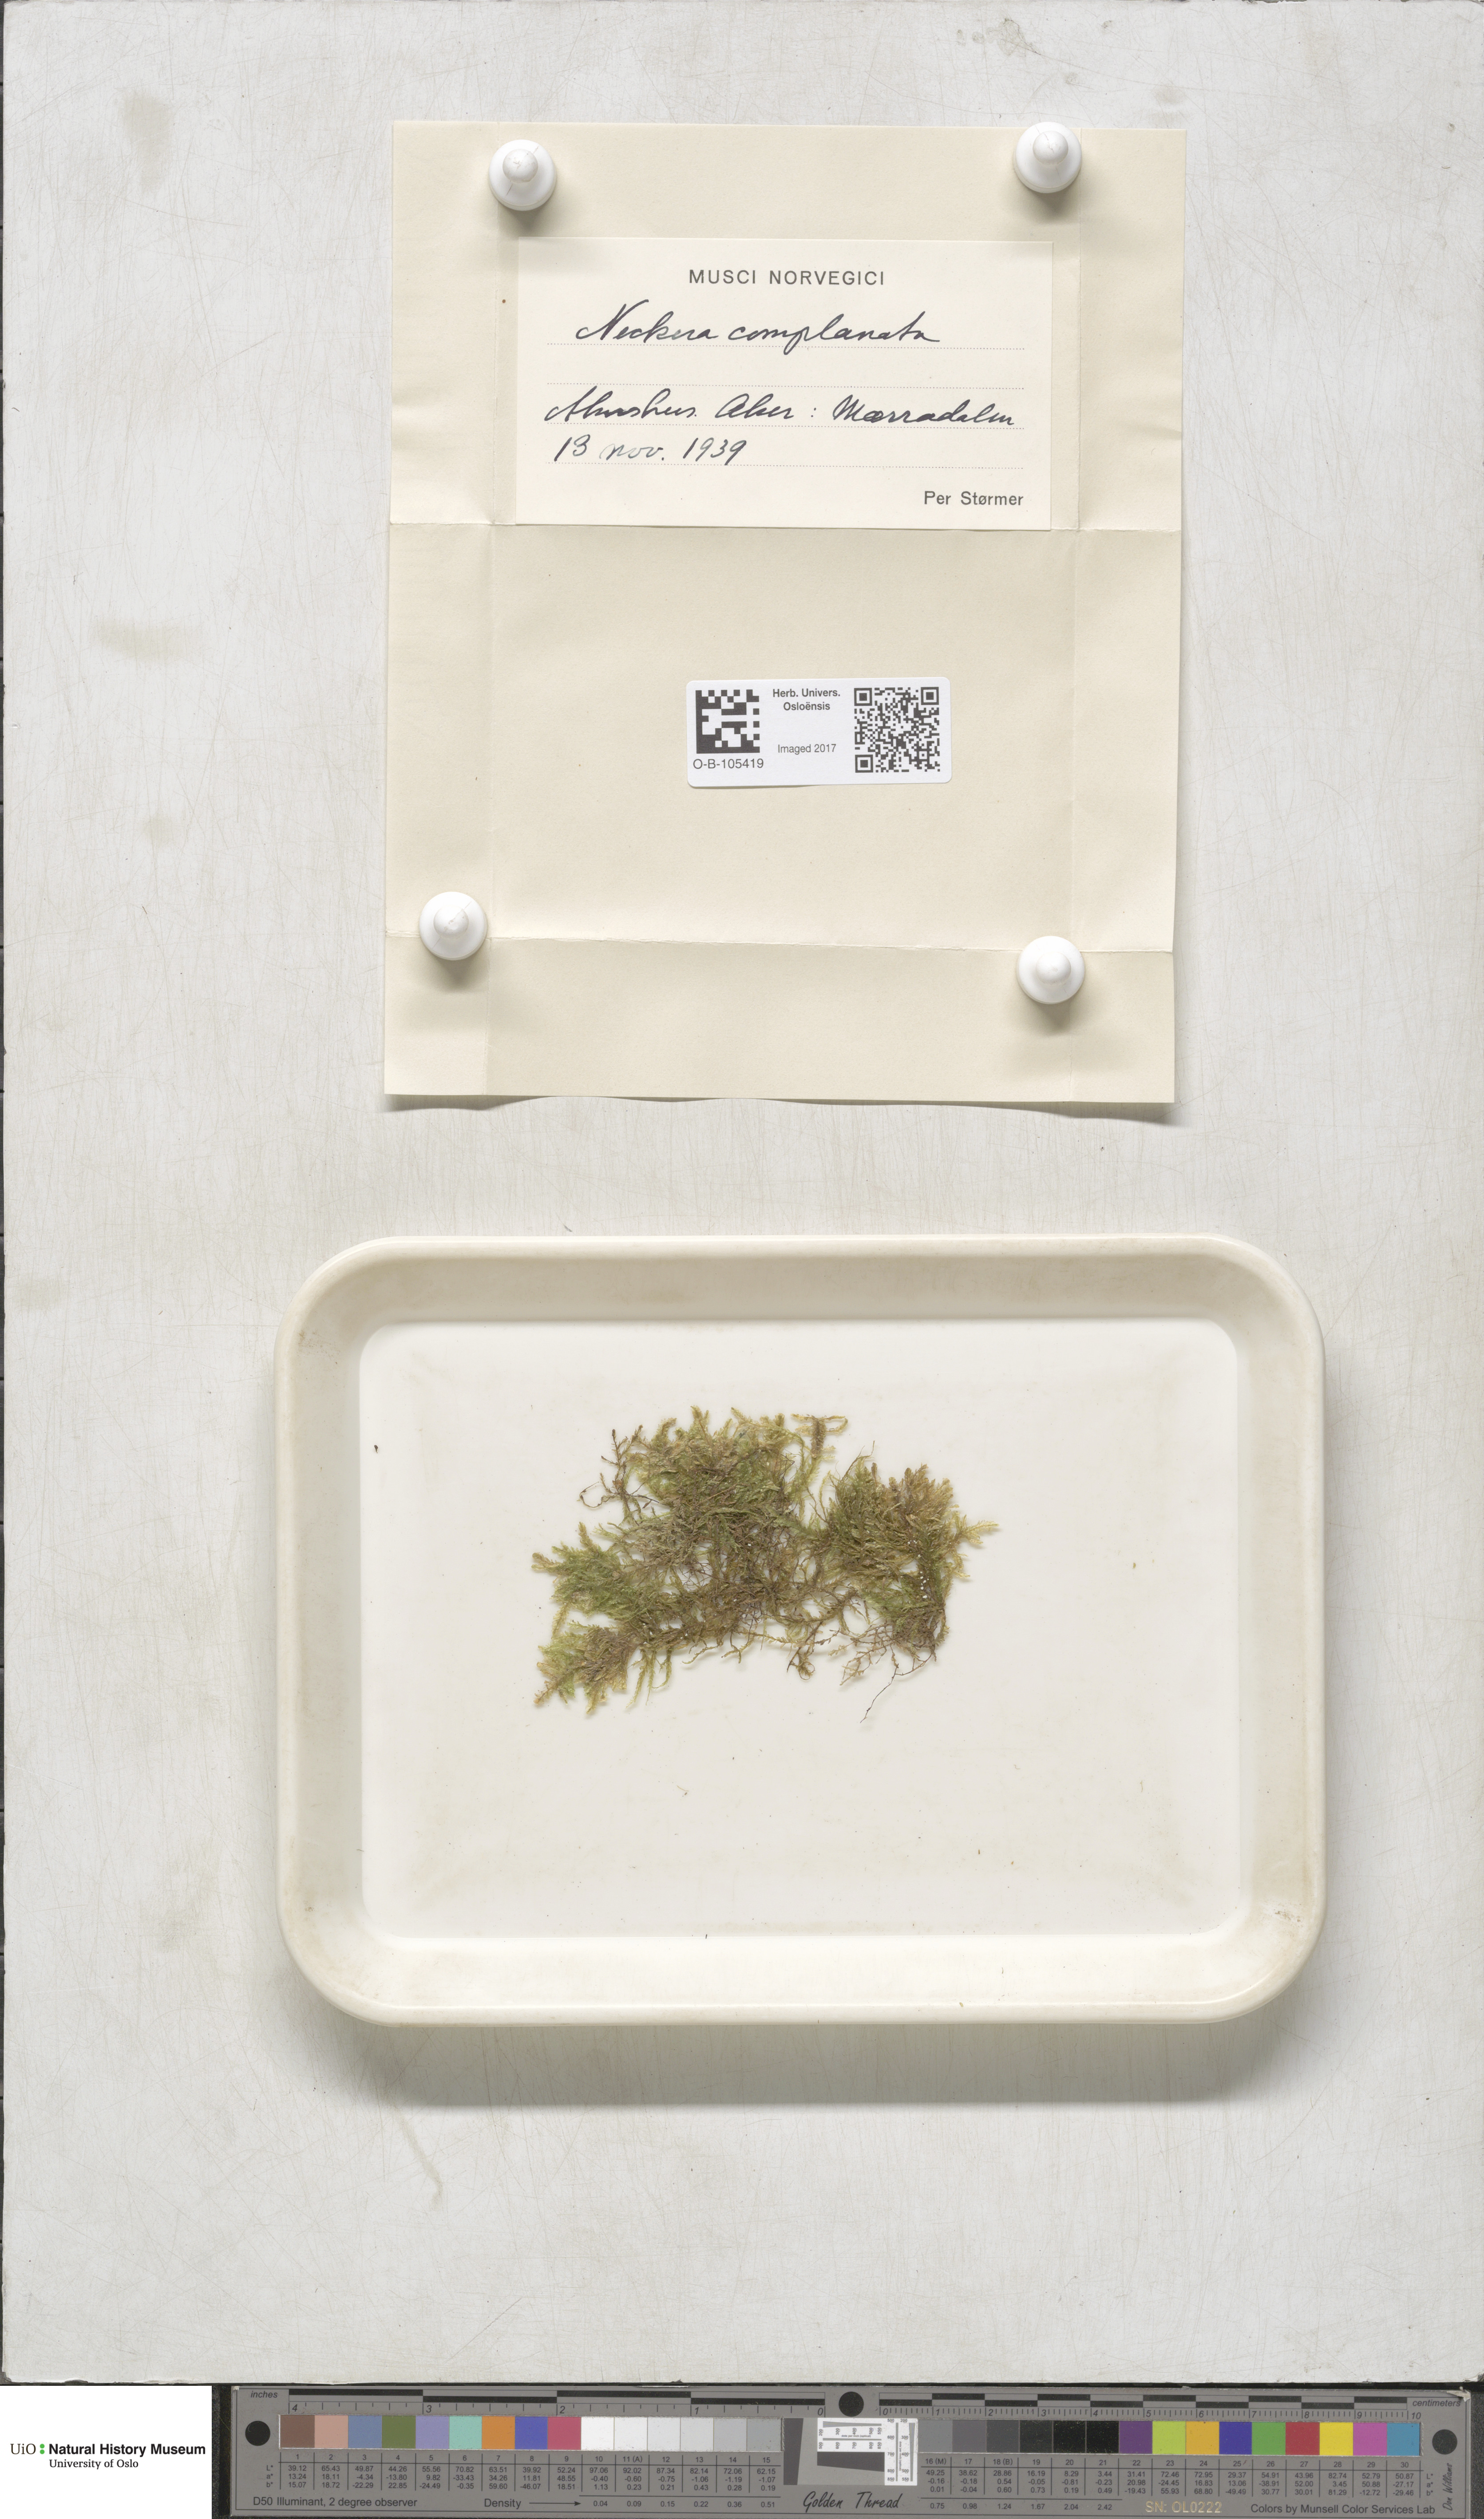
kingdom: Plantae
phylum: Bryophyta
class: Bryopsida
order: Hypnales
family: Neckeraceae
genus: Alleniella
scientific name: Alleniella complanata
